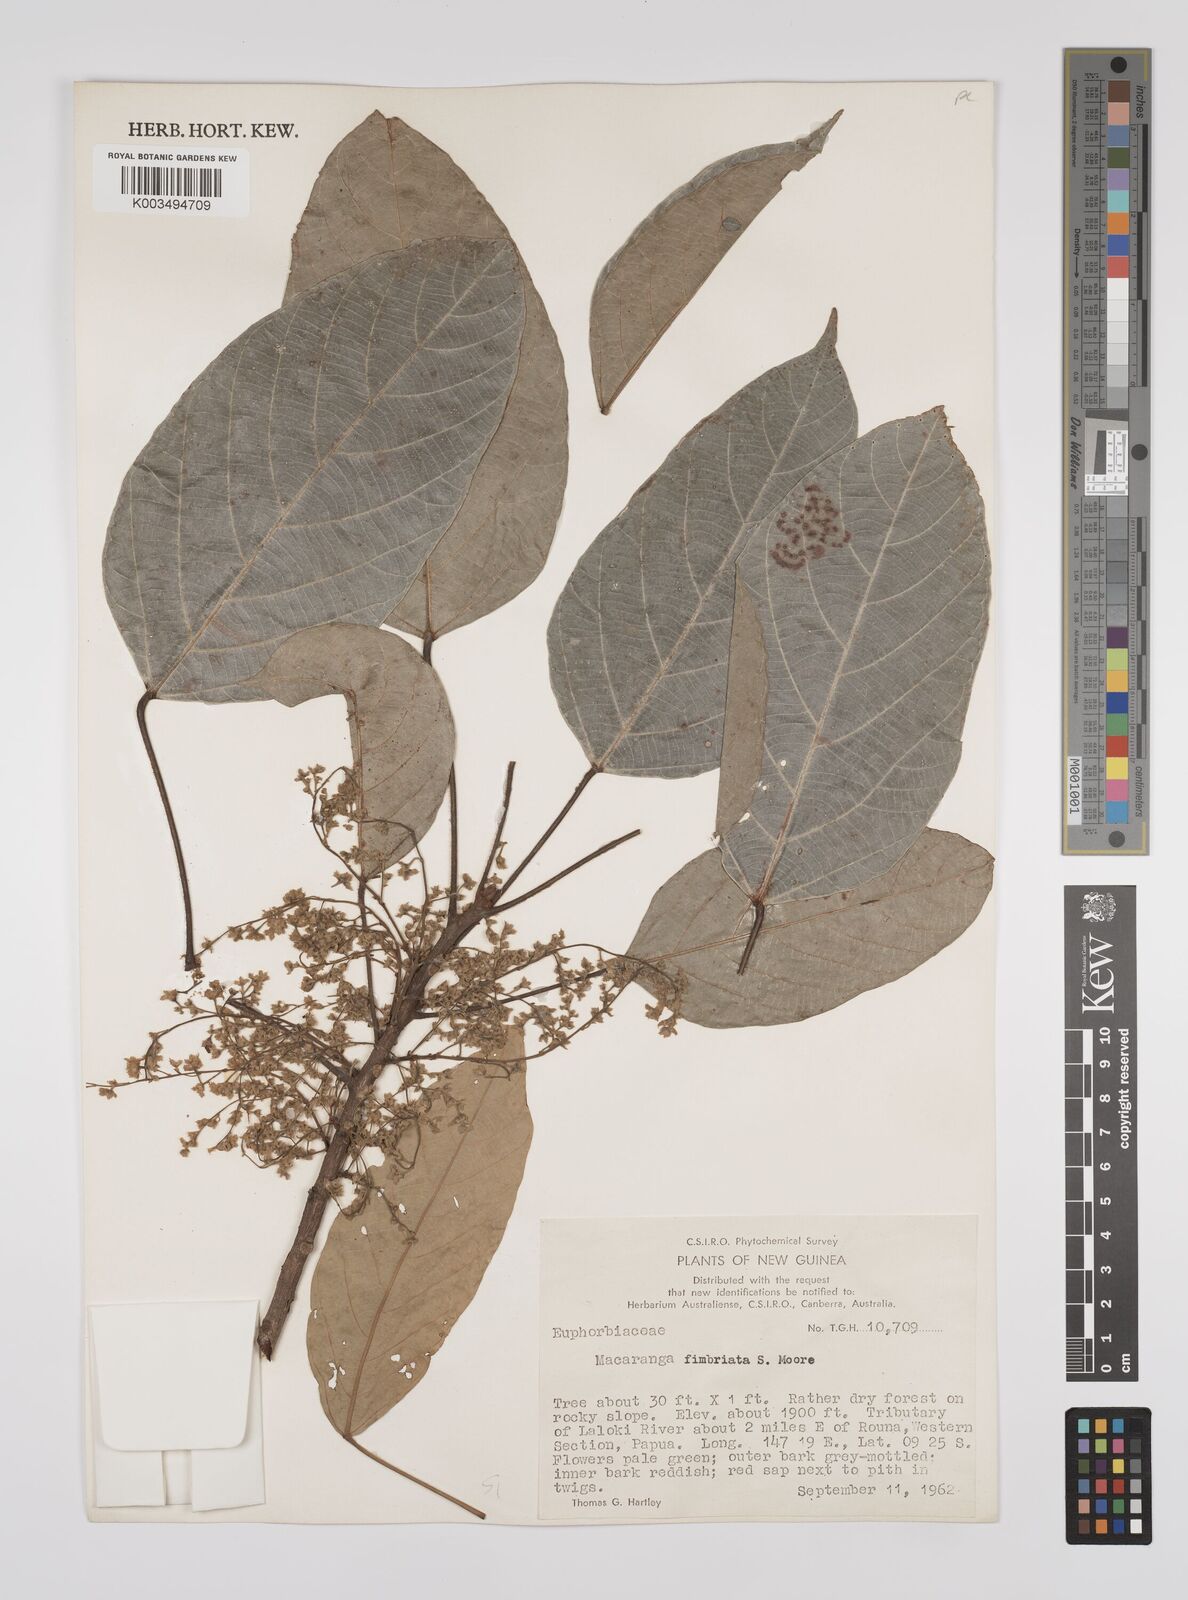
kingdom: Plantae
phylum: Tracheophyta
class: Magnoliopsida
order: Malpighiales
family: Euphorbiaceae
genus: Macaranga
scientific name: Macaranga polyadenia
